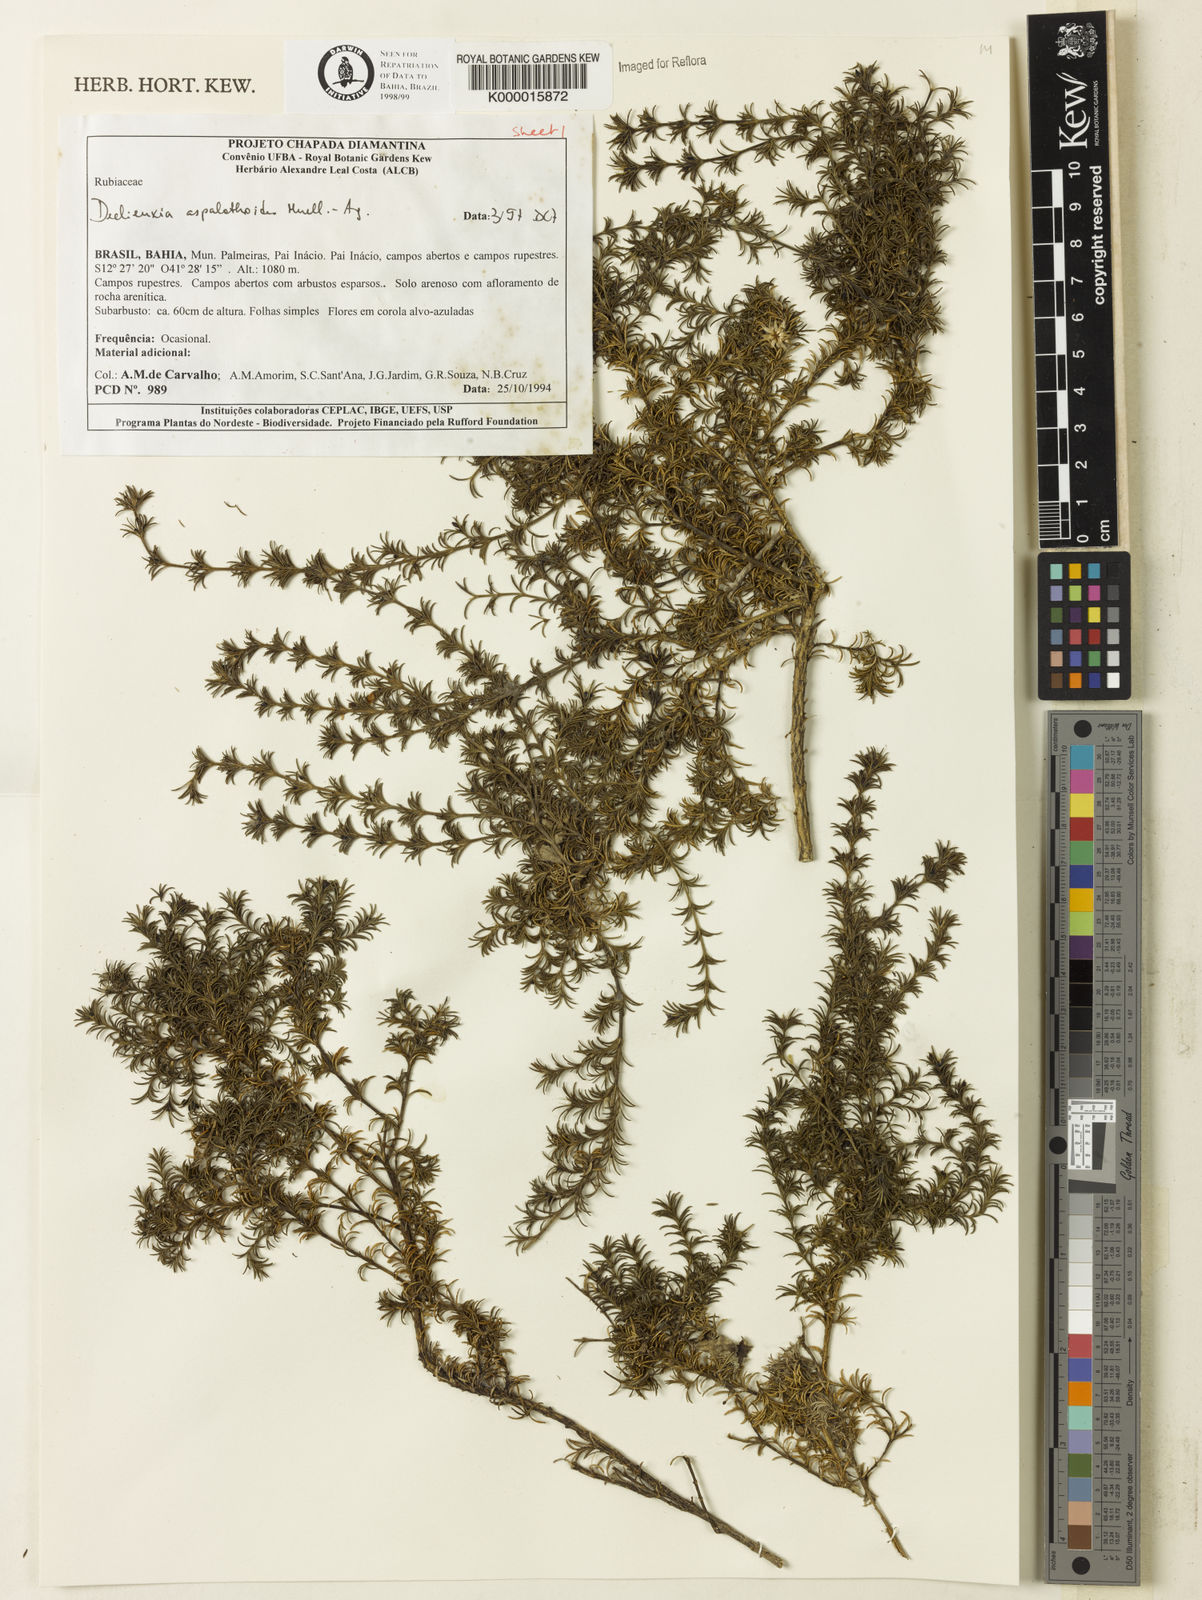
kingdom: Plantae
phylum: Tracheophyta
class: Magnoliopsida
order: Gentianales
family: Rubiaceae
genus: Declieuxia
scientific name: Declieuxia aspalathoides
